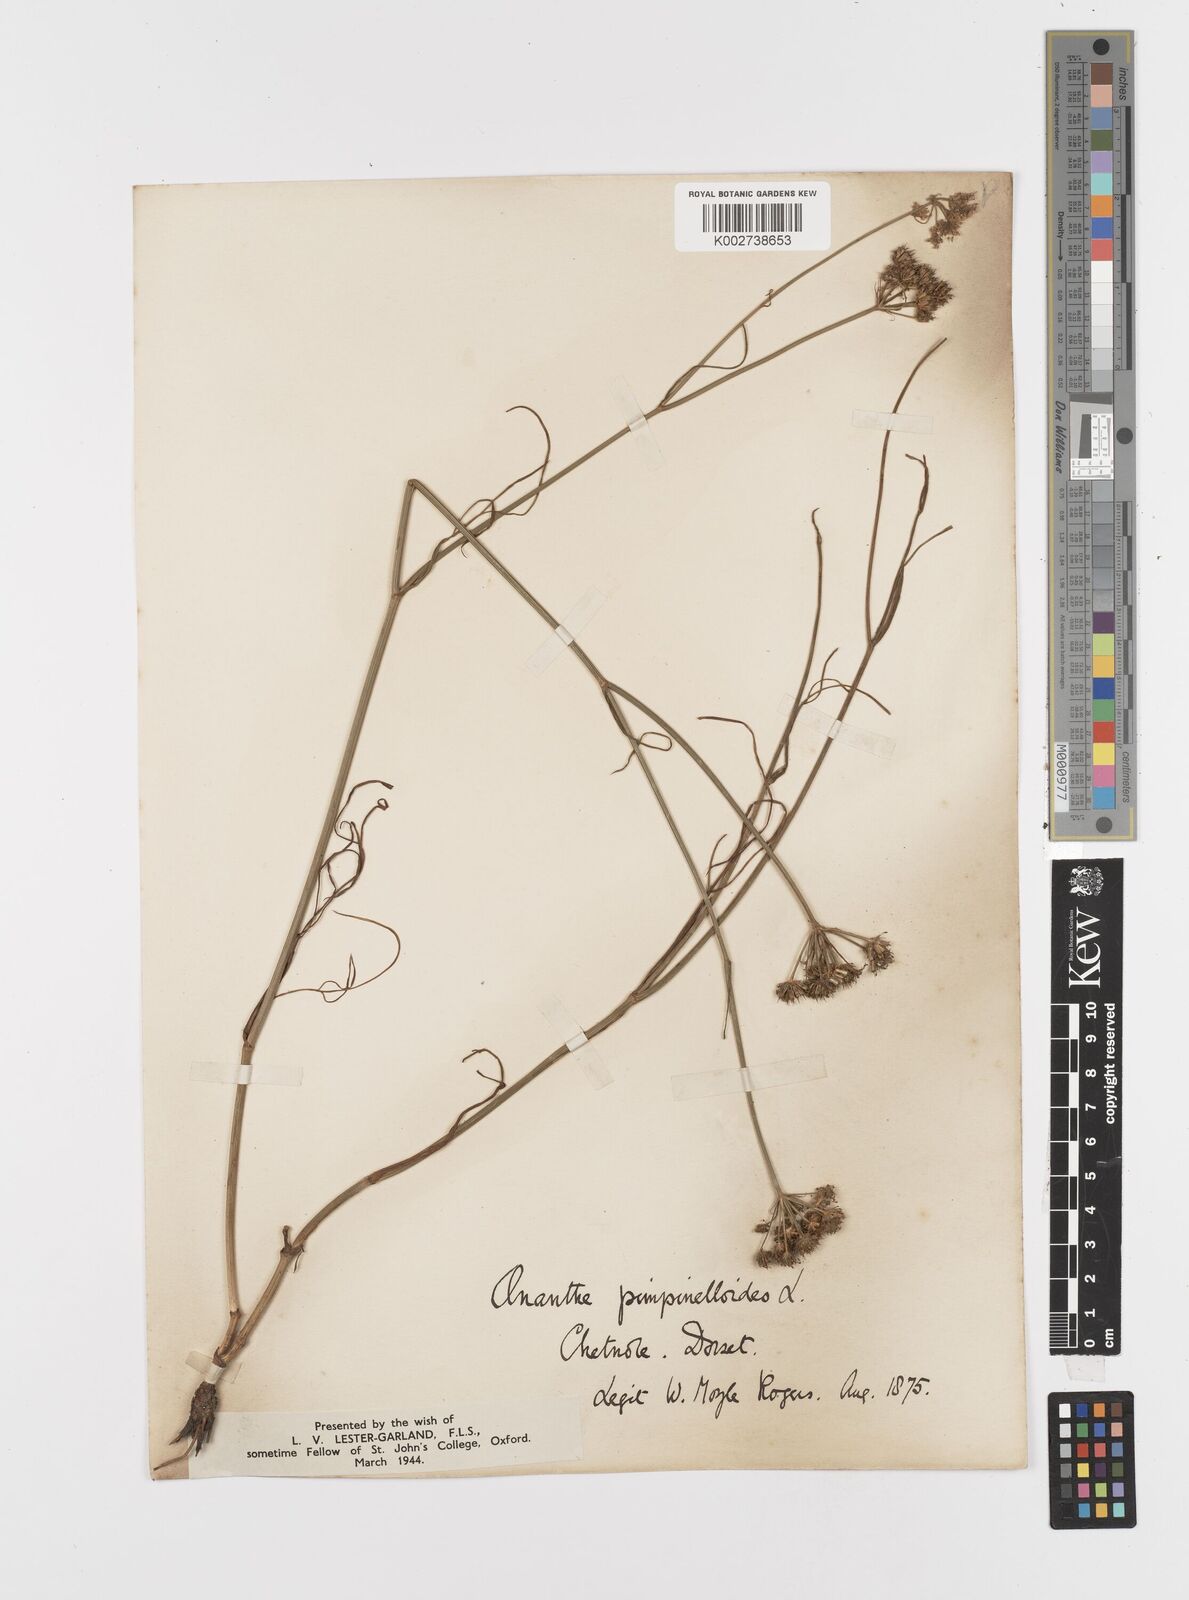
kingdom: Plantae
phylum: Tracheophyta
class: Magnoliopsida
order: Apiales
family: Apiaceae
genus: Oenanthe
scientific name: Oenanthe pimpinelloides
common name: Corky-fruited water-dropwort
